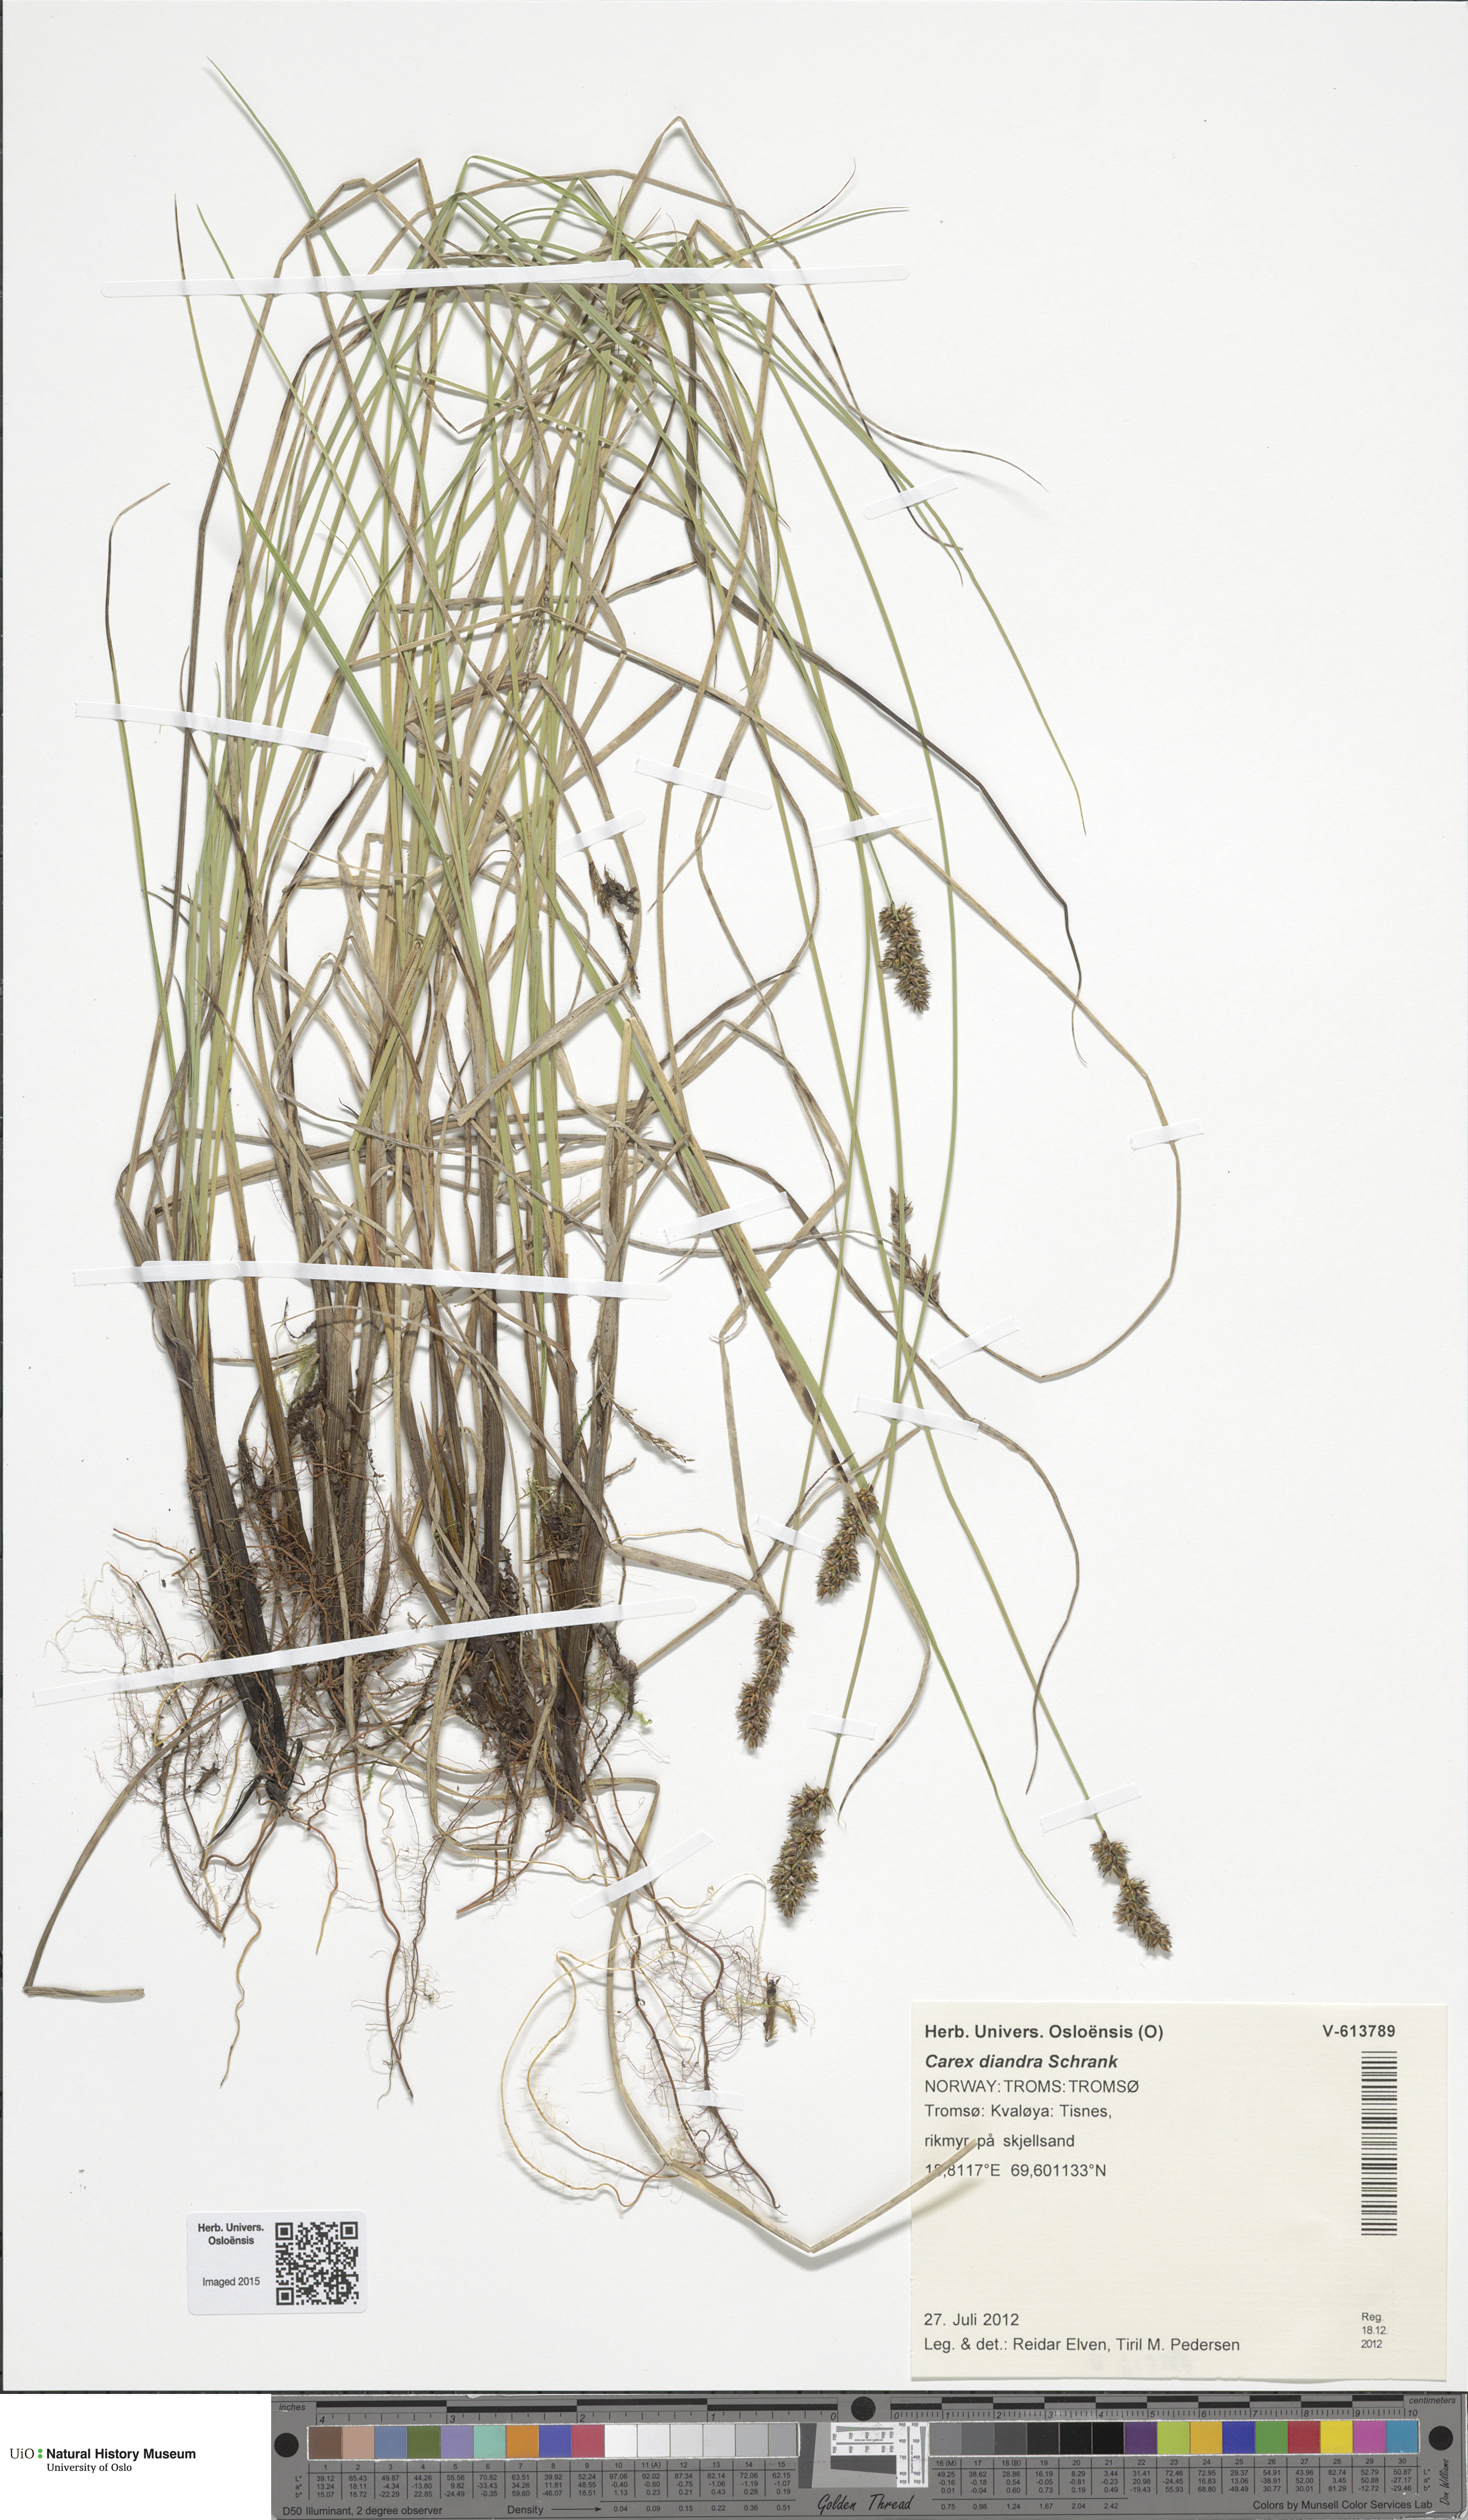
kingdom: Plantae
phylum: Tracheophyta
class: Liliopsida
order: Poales
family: Cyperaceae
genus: Carex
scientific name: Carex diandra
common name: Lesser tussock-sedge
